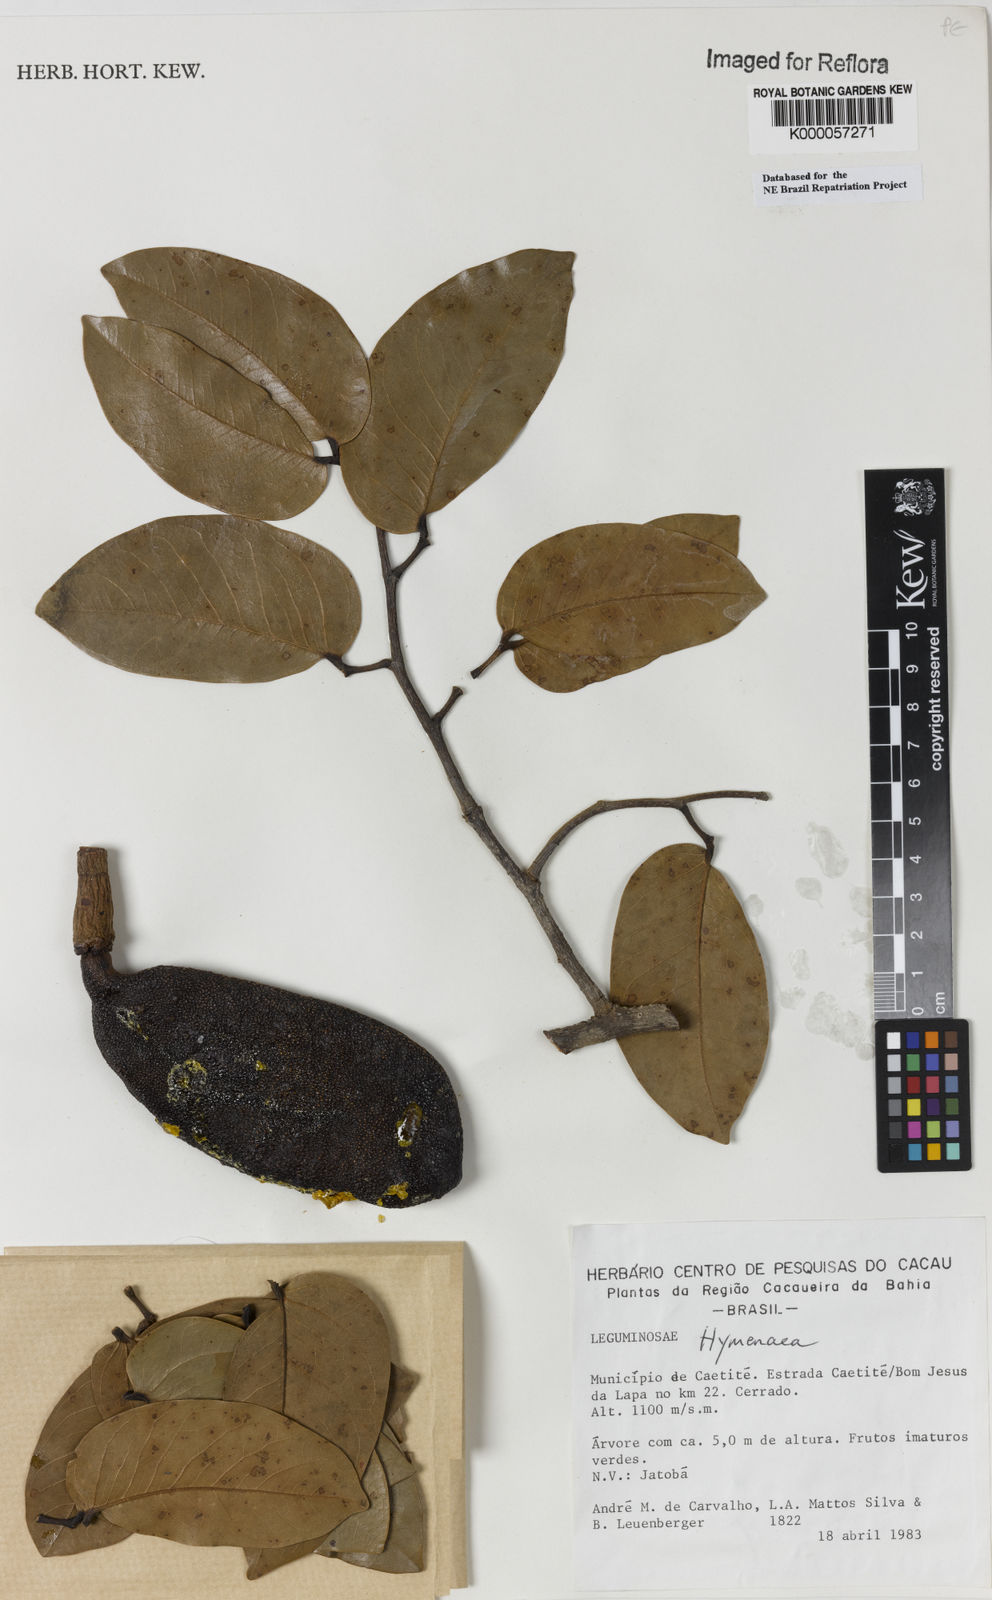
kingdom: Plantae
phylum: Tracheophyta
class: Magnoliopsida
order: Fabales
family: Fabaceae
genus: Hymenaea
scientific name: Hymenaea stigonocarpa
